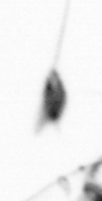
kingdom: Animalia
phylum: Arthropoda
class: Copepoda
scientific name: Copepoda
